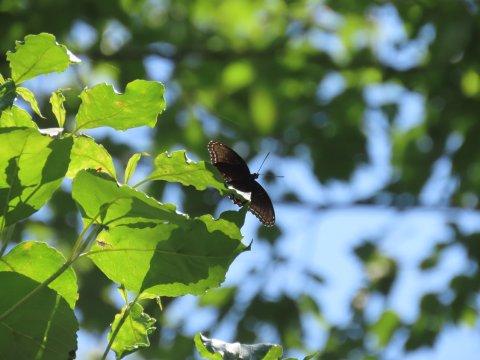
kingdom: Animalia
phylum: Arthropoda
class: Insecta
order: Lepidoptera
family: Nymphalidae
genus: Limenitis
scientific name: Limenitis arthemis
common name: Red-spotted Admiral
